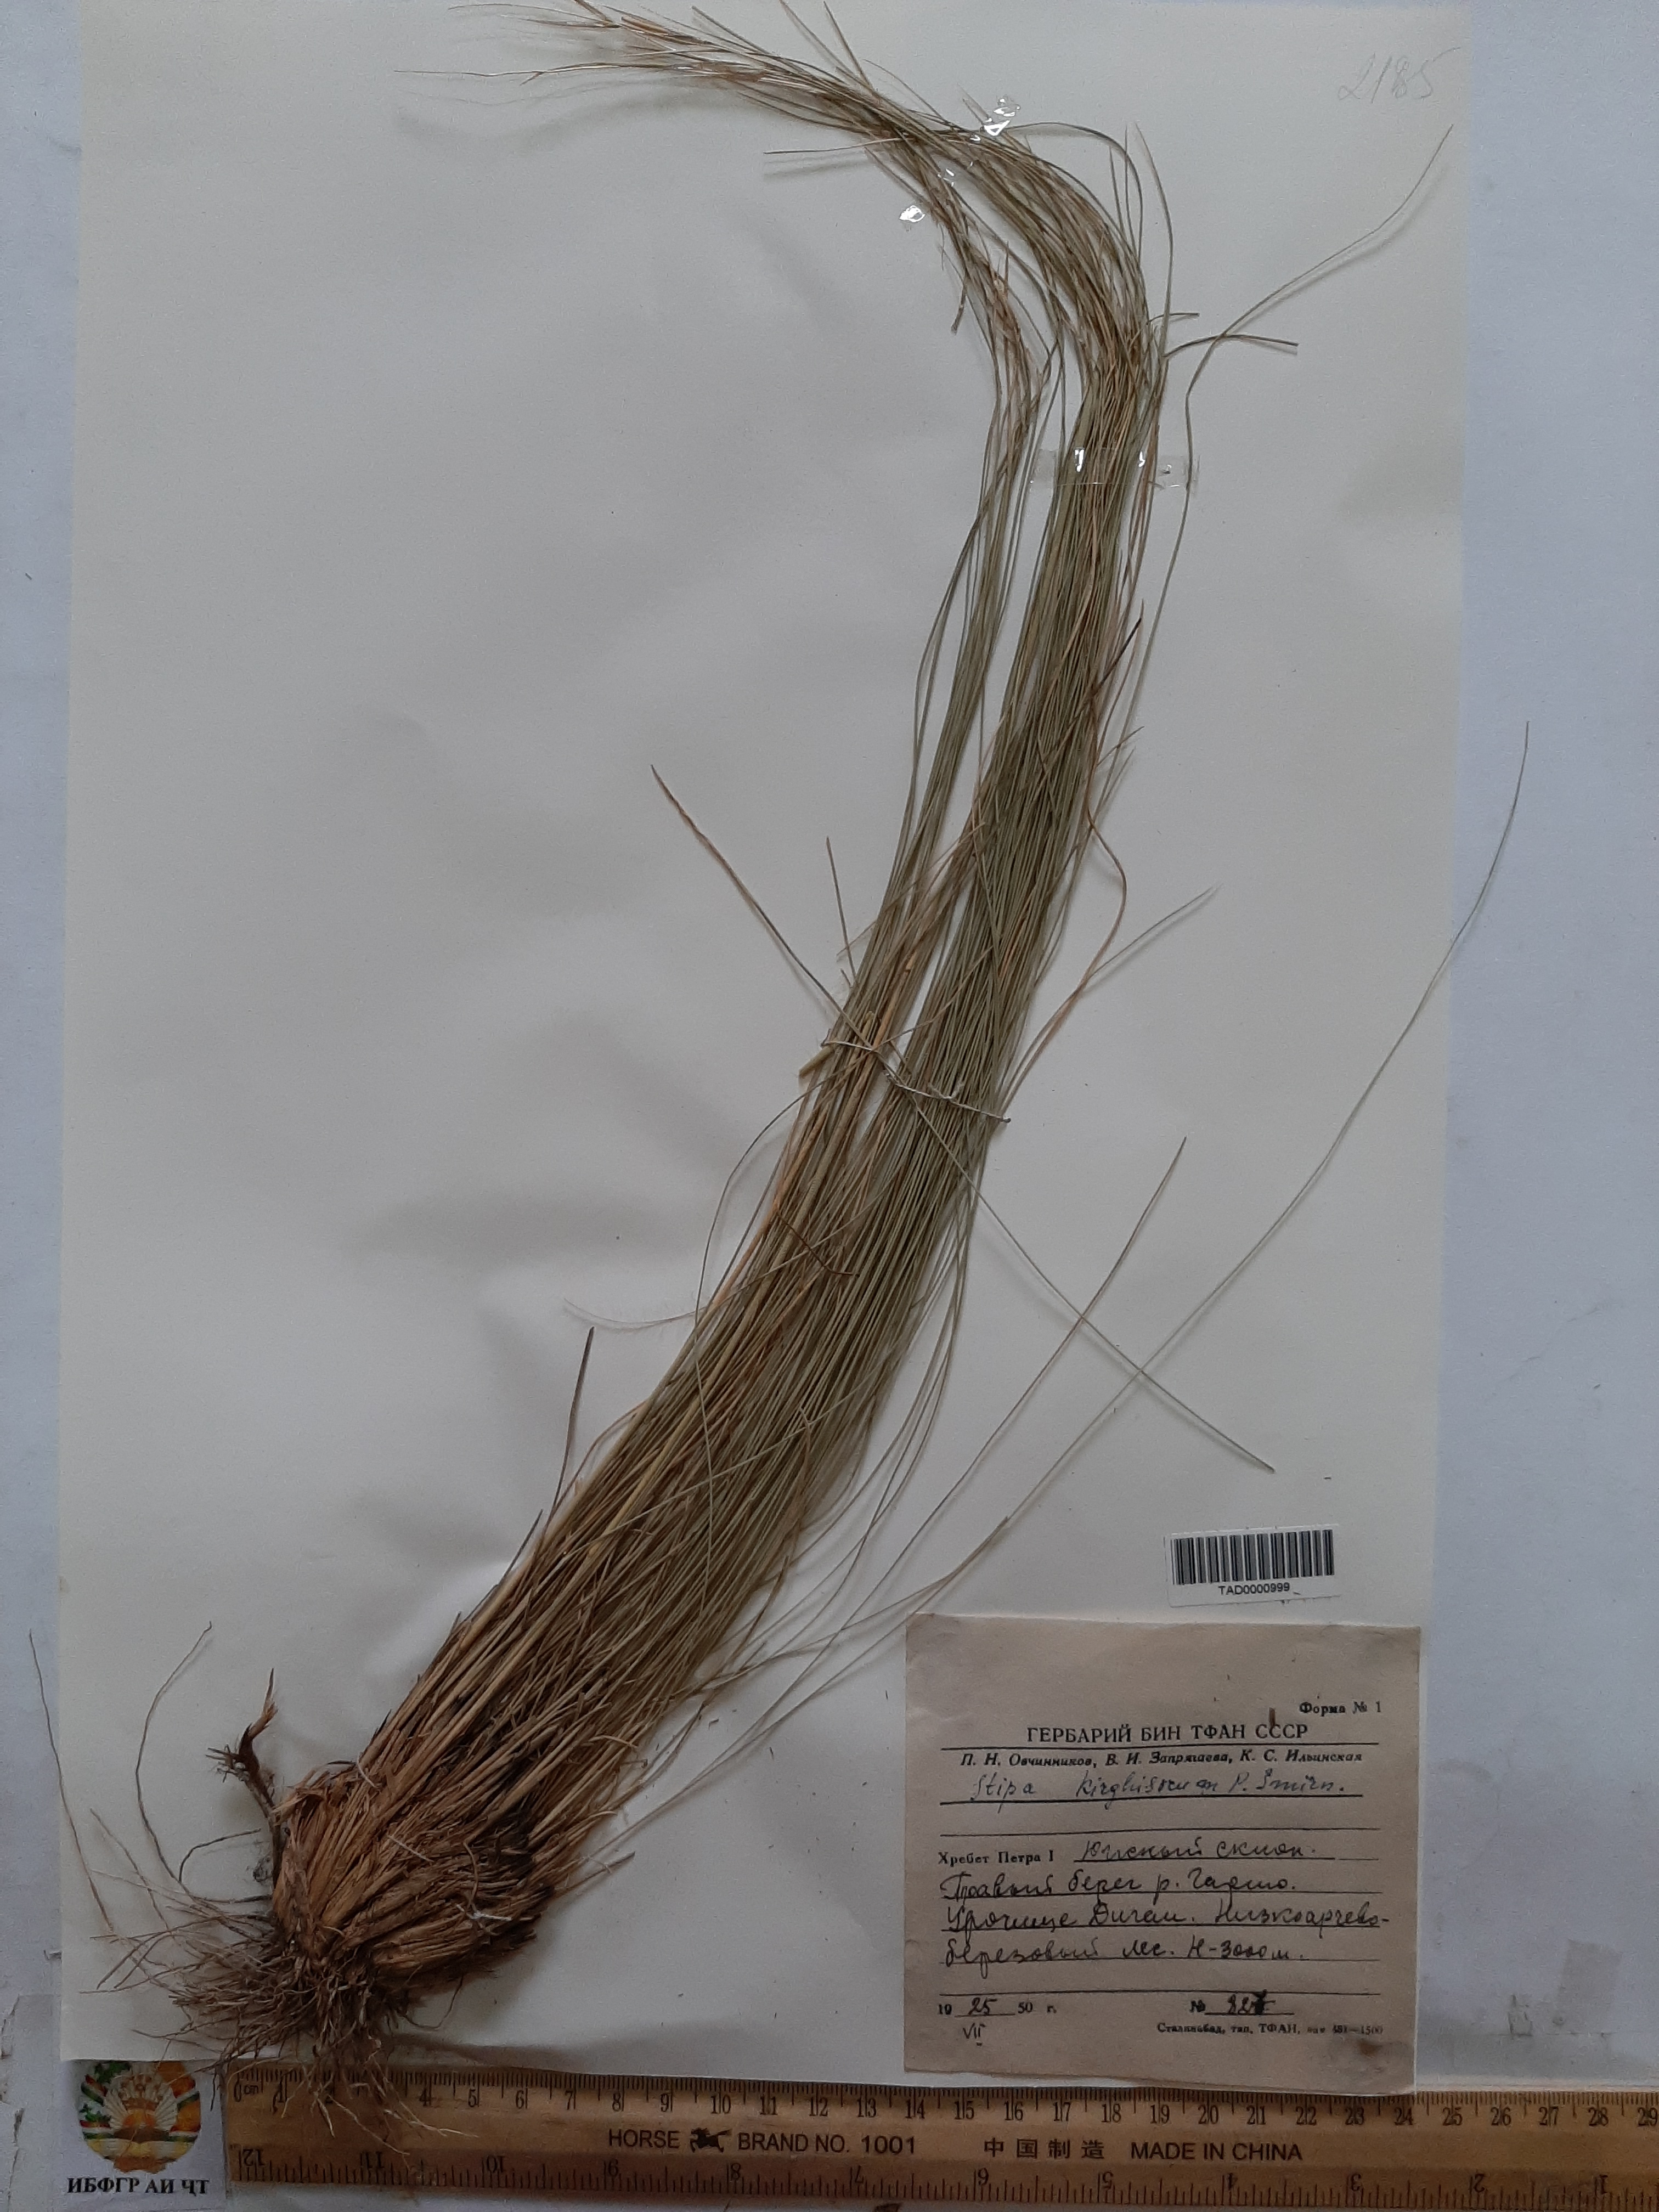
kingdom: Plantae
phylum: Tracheophyta
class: Liliopsida
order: Poales
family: Poaceae
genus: Stipa
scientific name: Stipa kirghisorum
